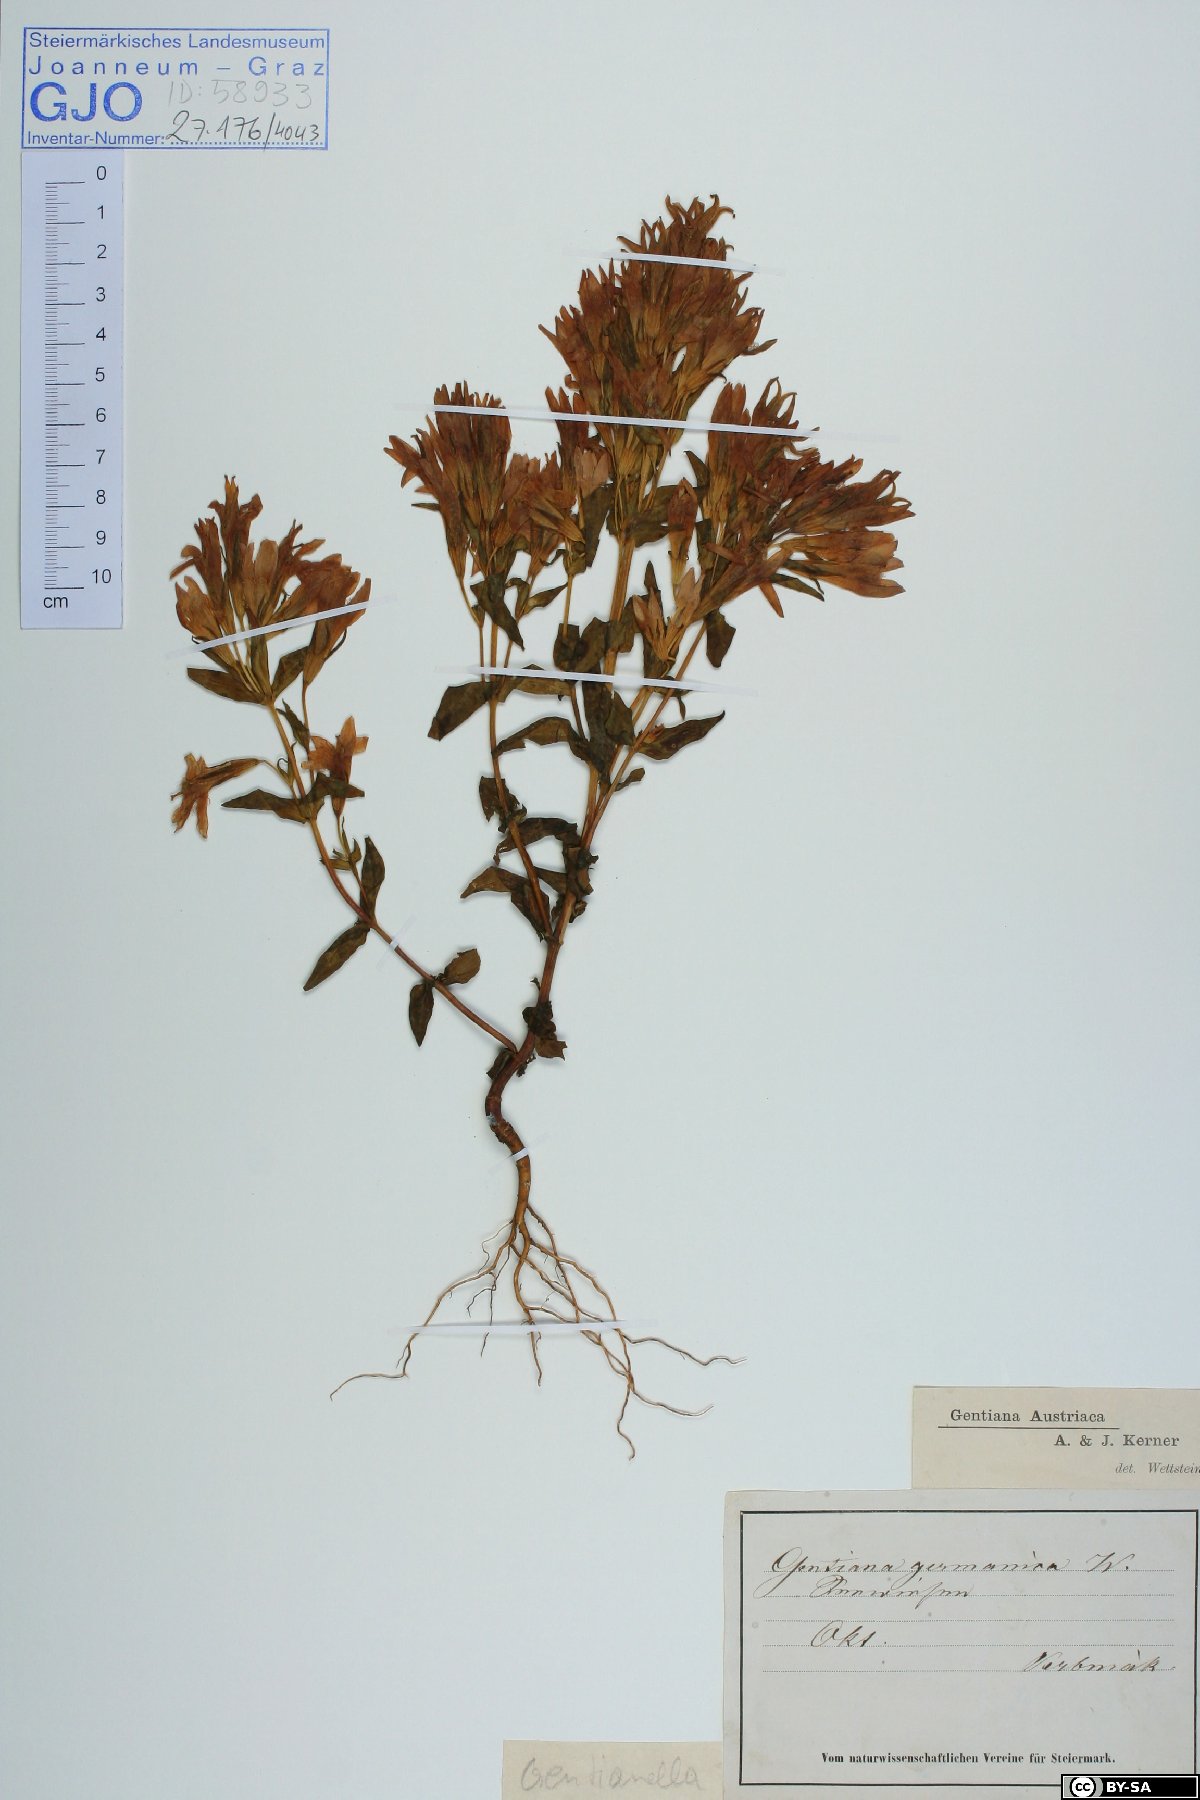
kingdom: Plantae
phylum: Tracheophyta
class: Magnoliopsida
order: Gentianales
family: Gentianaceae
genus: Gentianella
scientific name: Gentianella austriaca
